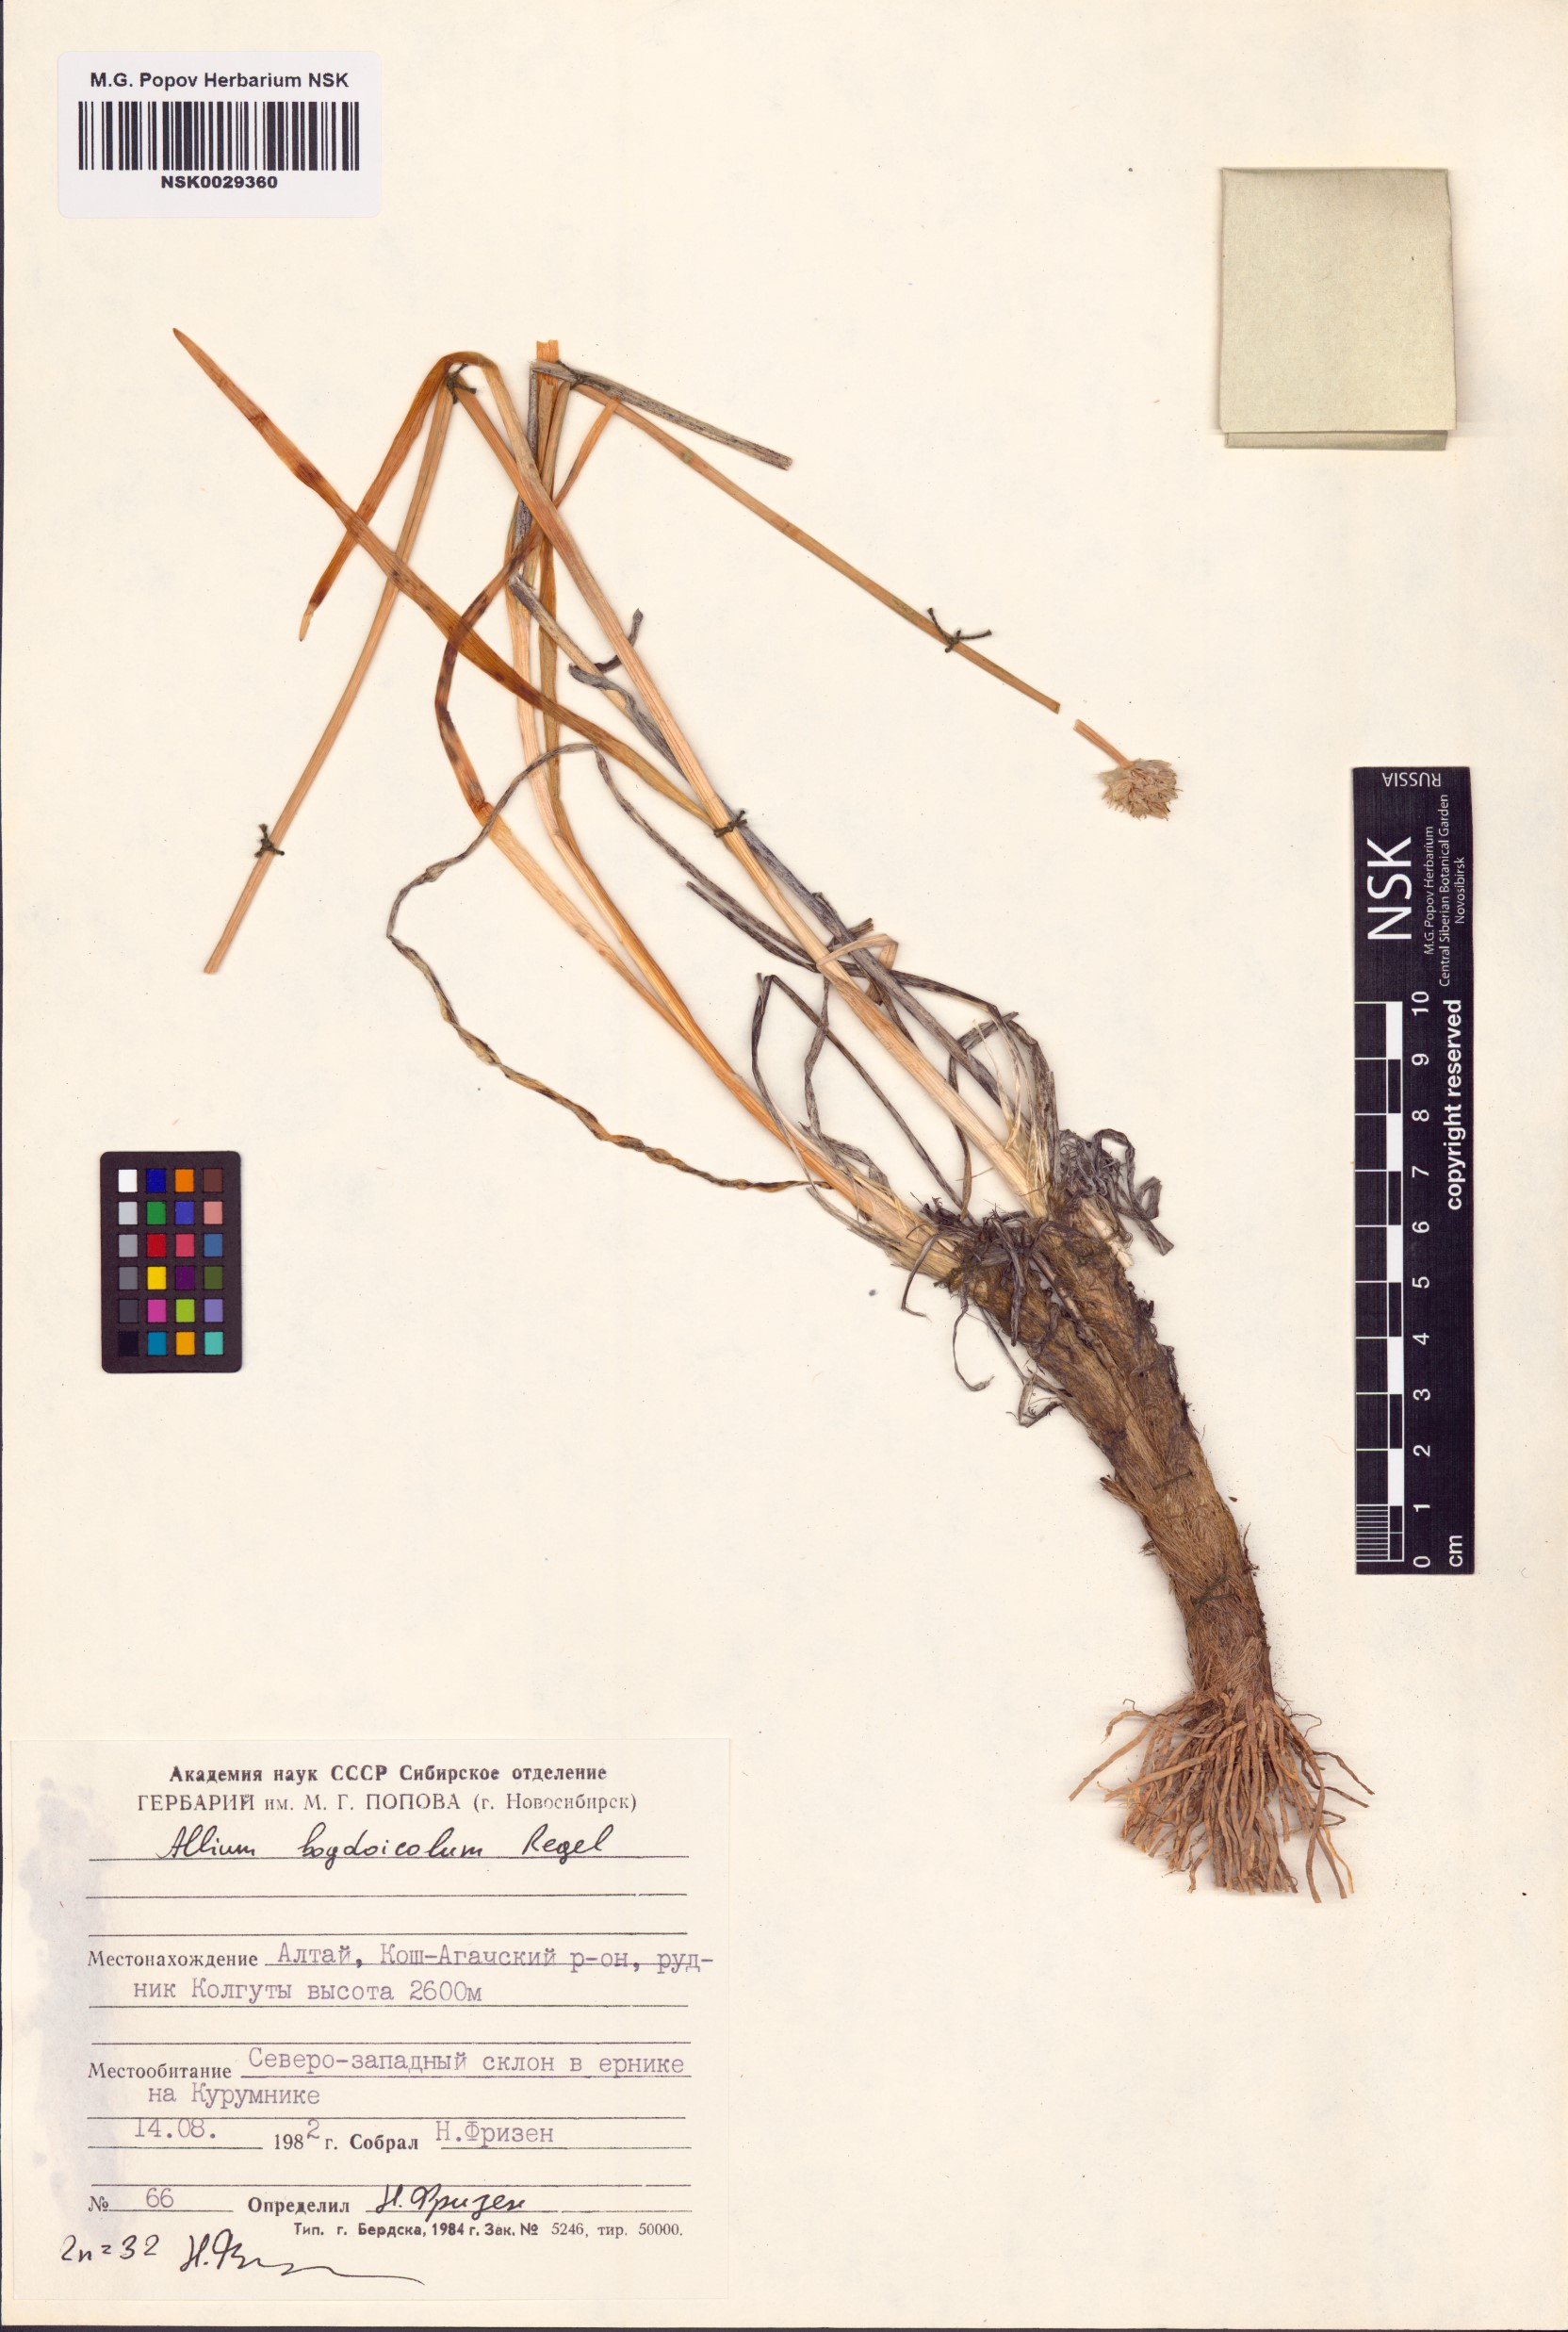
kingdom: Plantae
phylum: Tracheophyta
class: Liliopsida
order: Asparagales
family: Amaryllidaceae
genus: Allium
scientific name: Allium schrenkii
